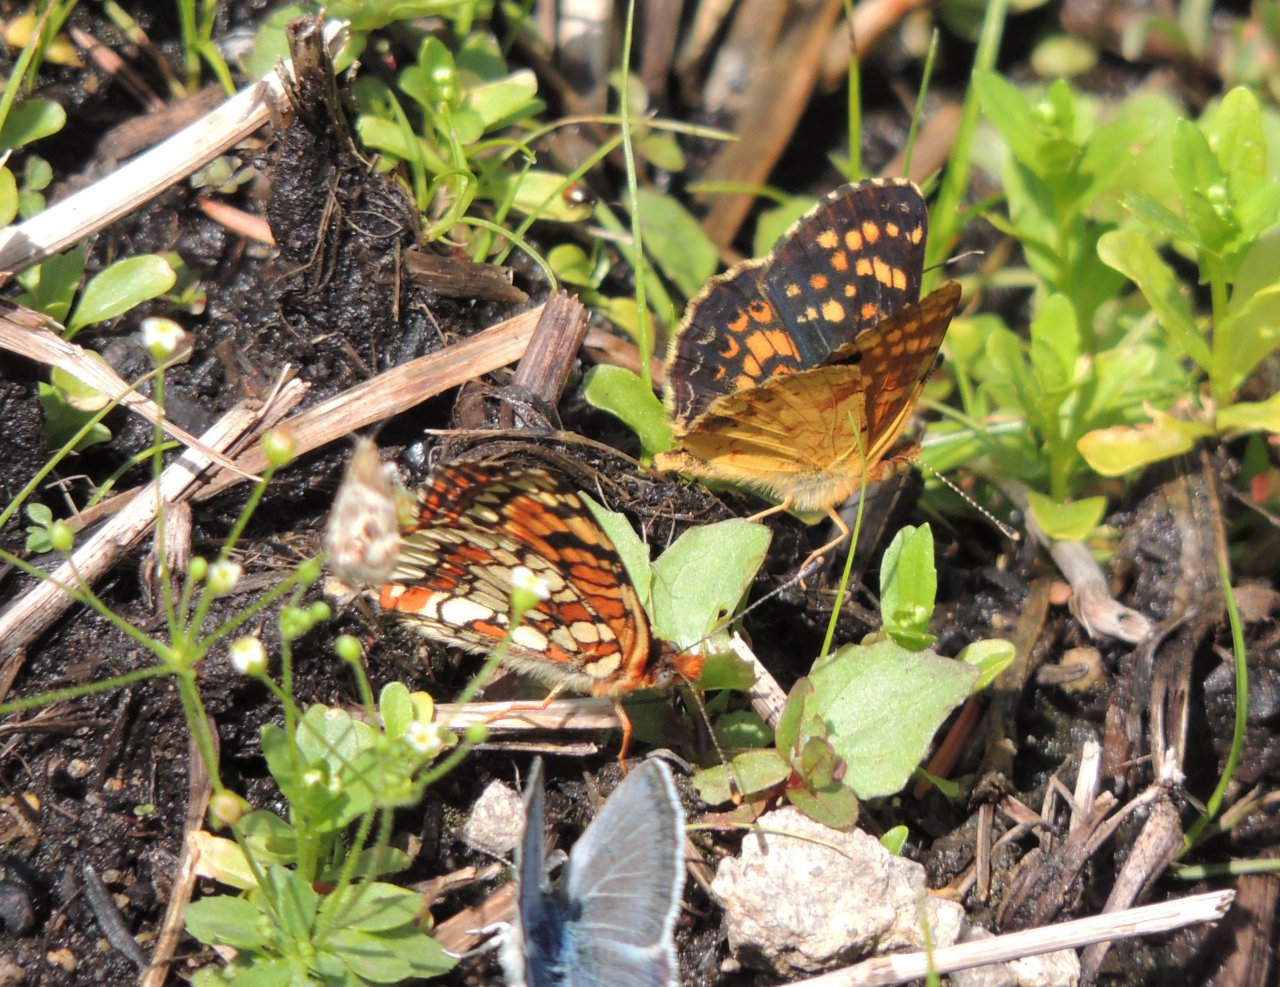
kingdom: Animalia
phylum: Arthropoda
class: Insecta
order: Lepidoptera
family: Nymphalidae
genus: Phyciodes
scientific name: Phyciodes tharos
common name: Field Crescent
